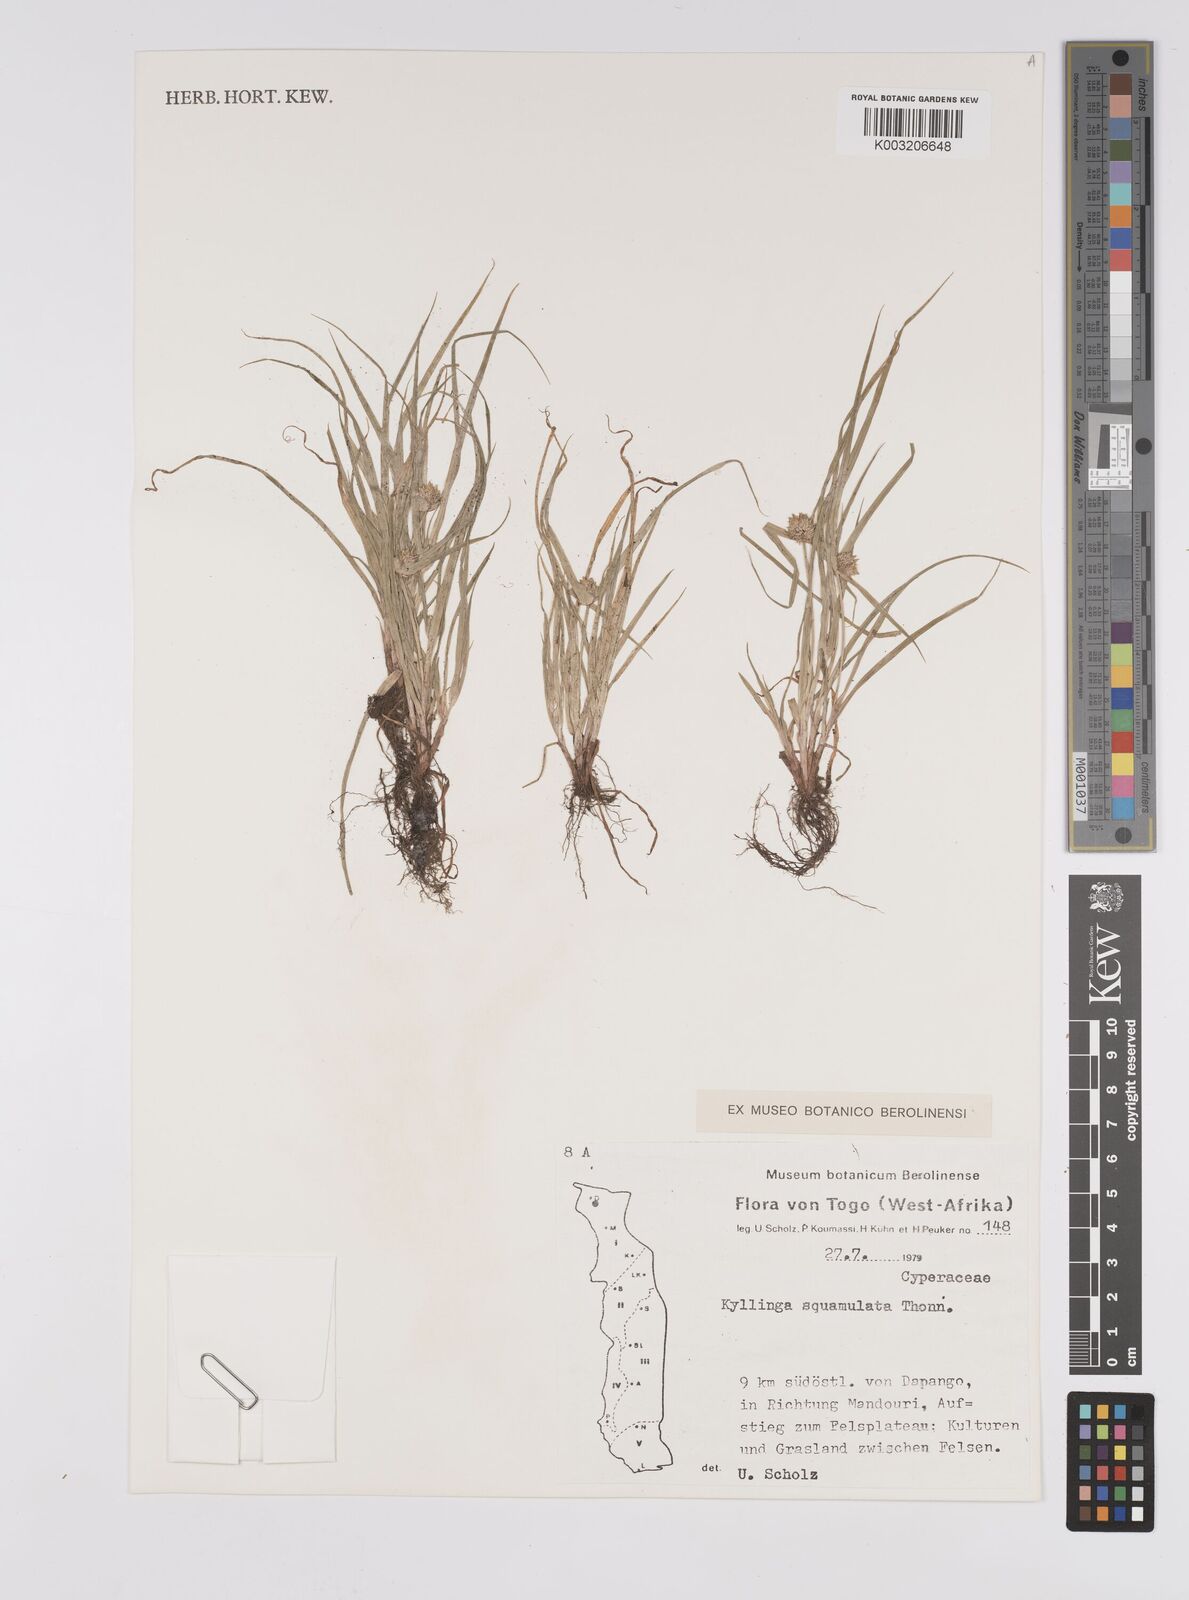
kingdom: Plantae
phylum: Tracheophyta
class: Liliopsida
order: Poales
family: Cyperaceae
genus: Cyperus
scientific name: Cyperus distans
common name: Slender cyperus
